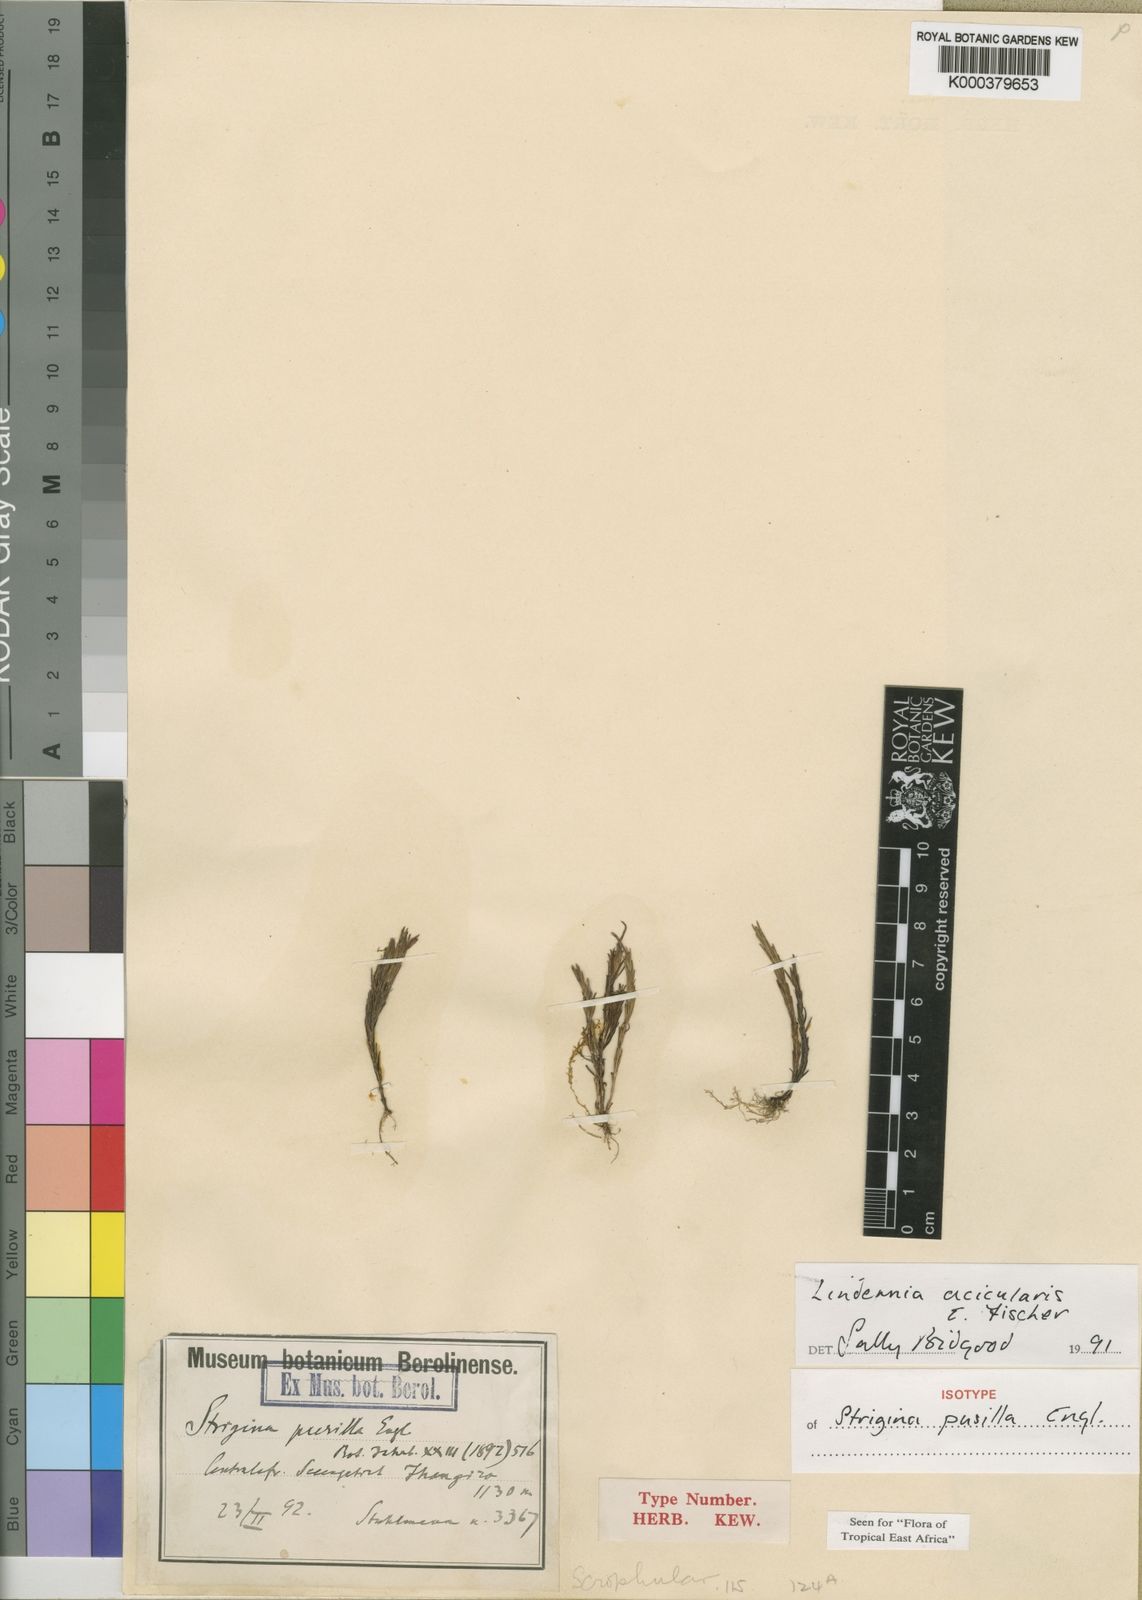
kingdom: Plantae
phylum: Tracheophyta
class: Magnoliopsida
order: Lamiales
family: Linderniaceae
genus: Craterostigma
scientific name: Craterostigma pusillum
